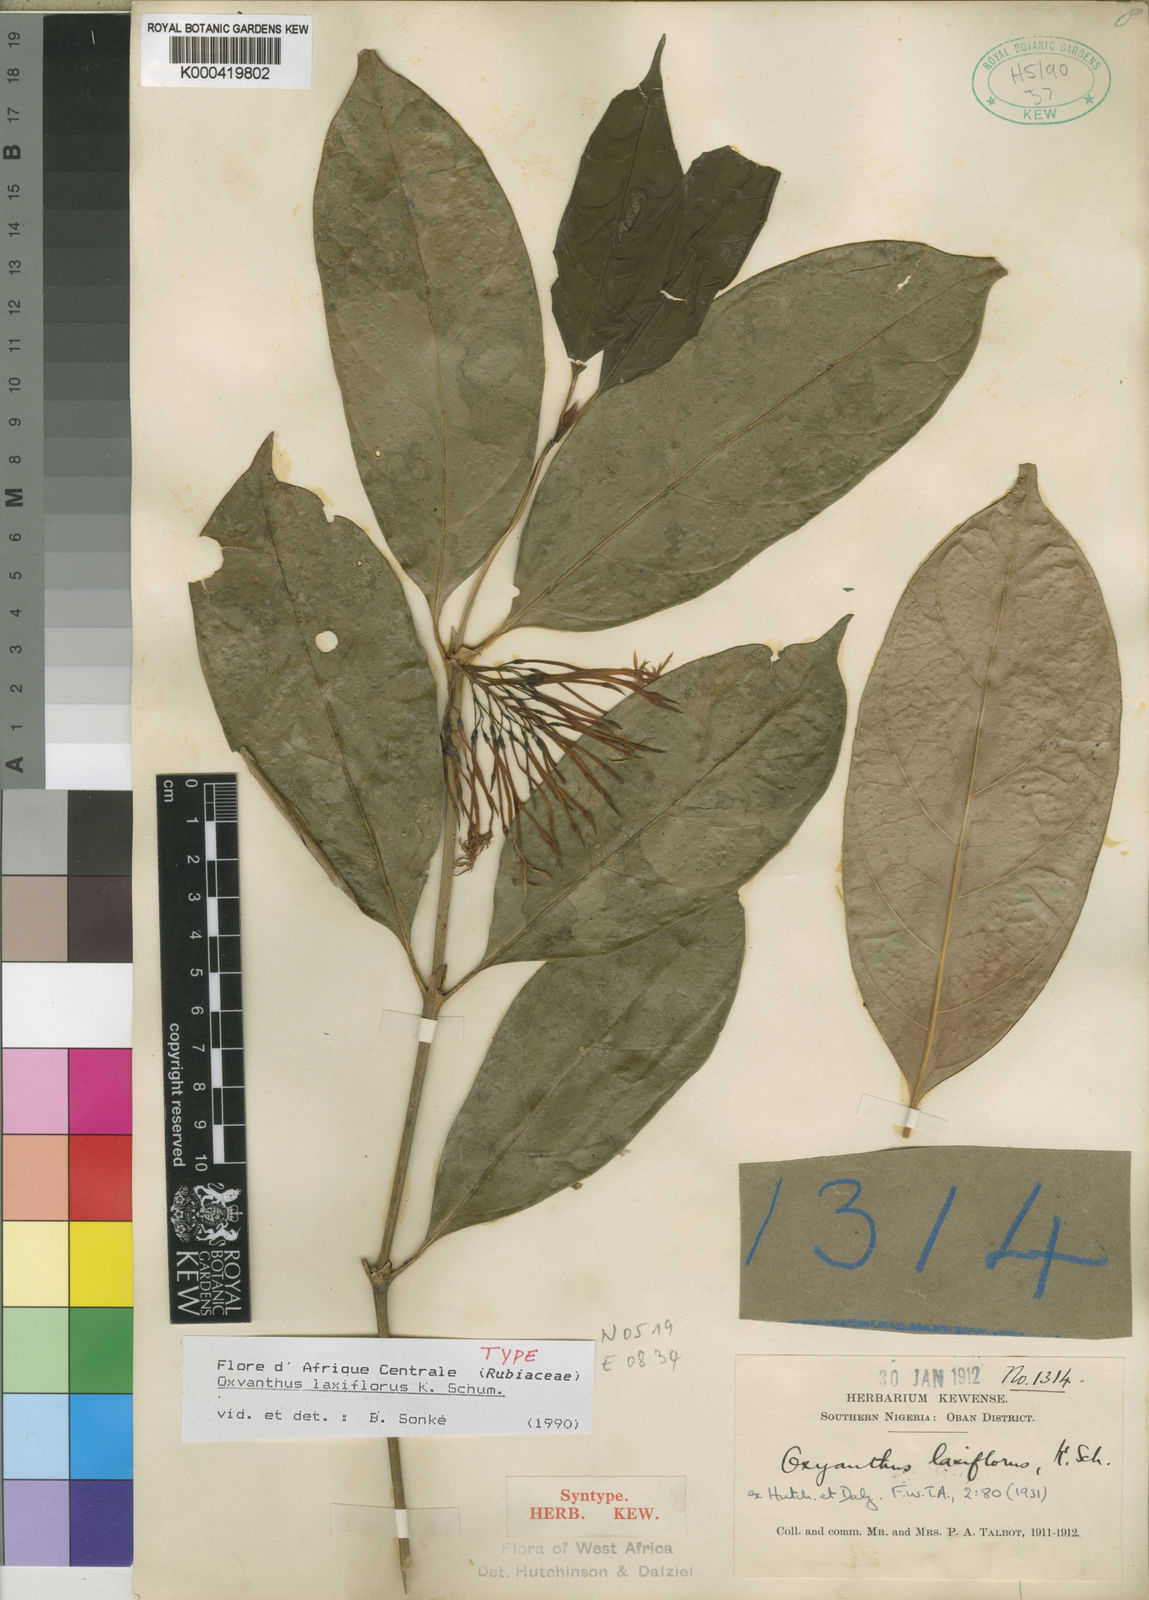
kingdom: Plantae
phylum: Tracheophyta
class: Magnoliopsida
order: Gentianales
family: Rubiaceae
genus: Oxyanthus
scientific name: Oxyanthus laxiflorus
